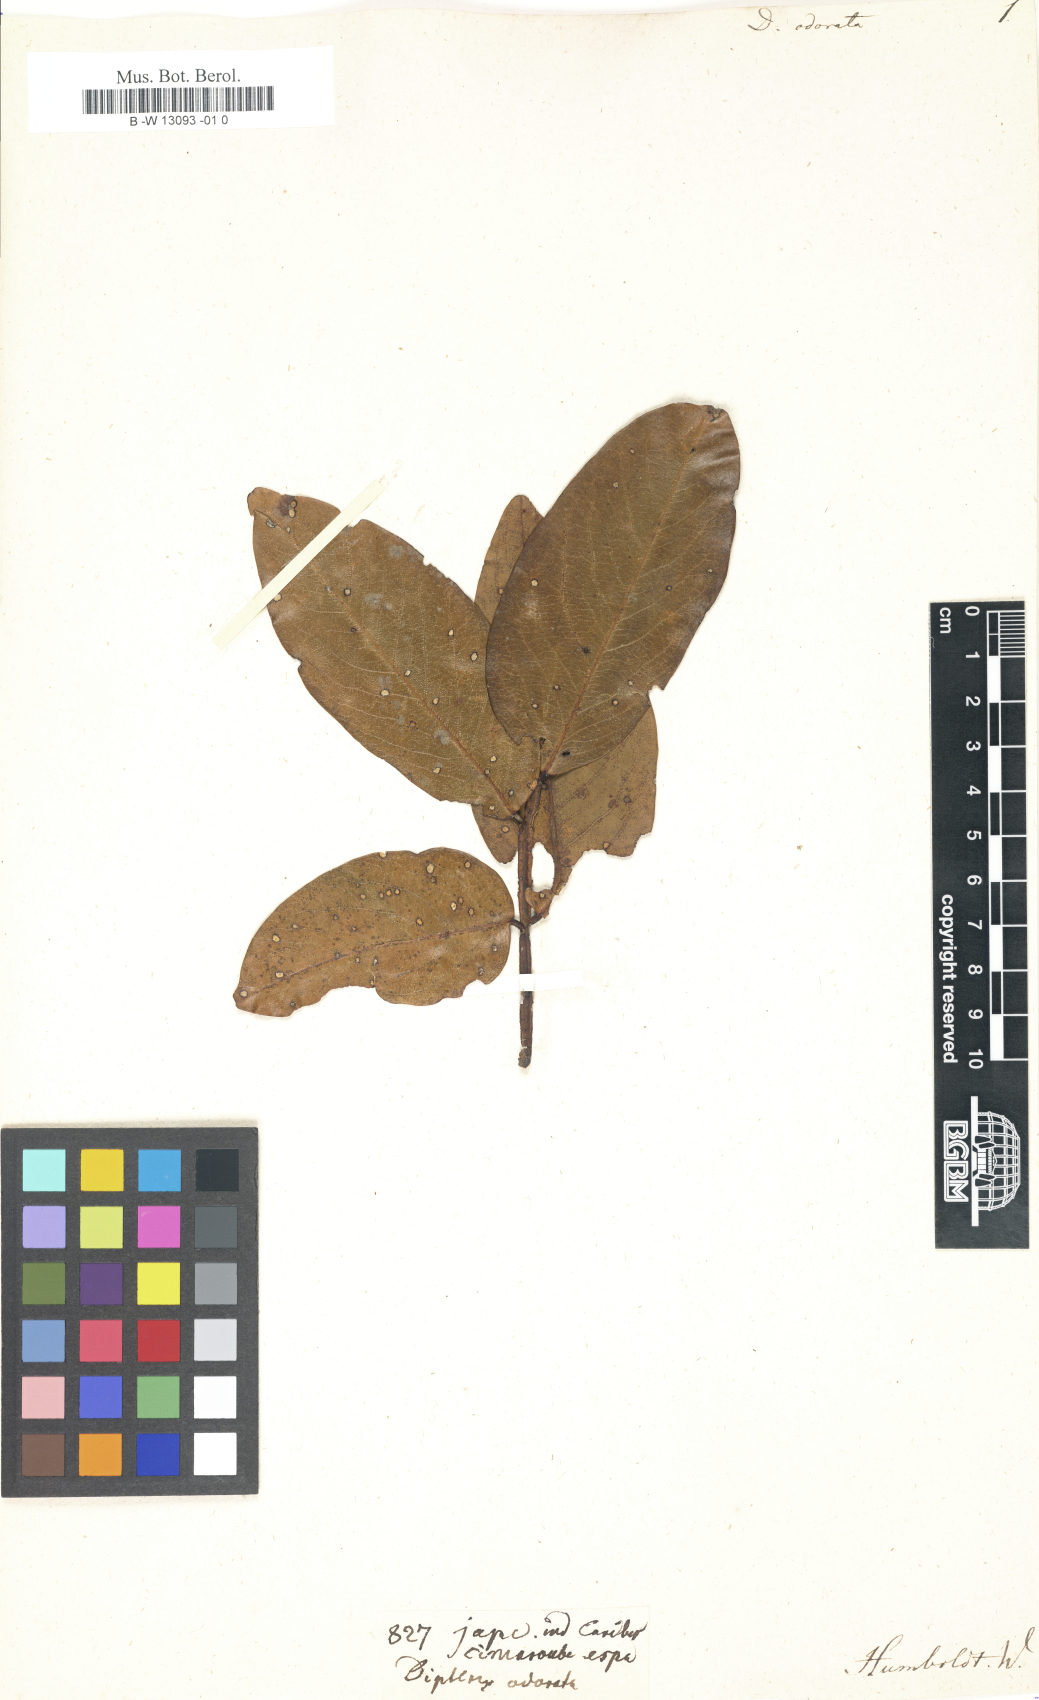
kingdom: Plantae
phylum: Tracheophyta
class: Magnoliopsida
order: Fabales
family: Fabaceae
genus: Dipteryx
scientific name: Dipteryx odorata
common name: Tonka
